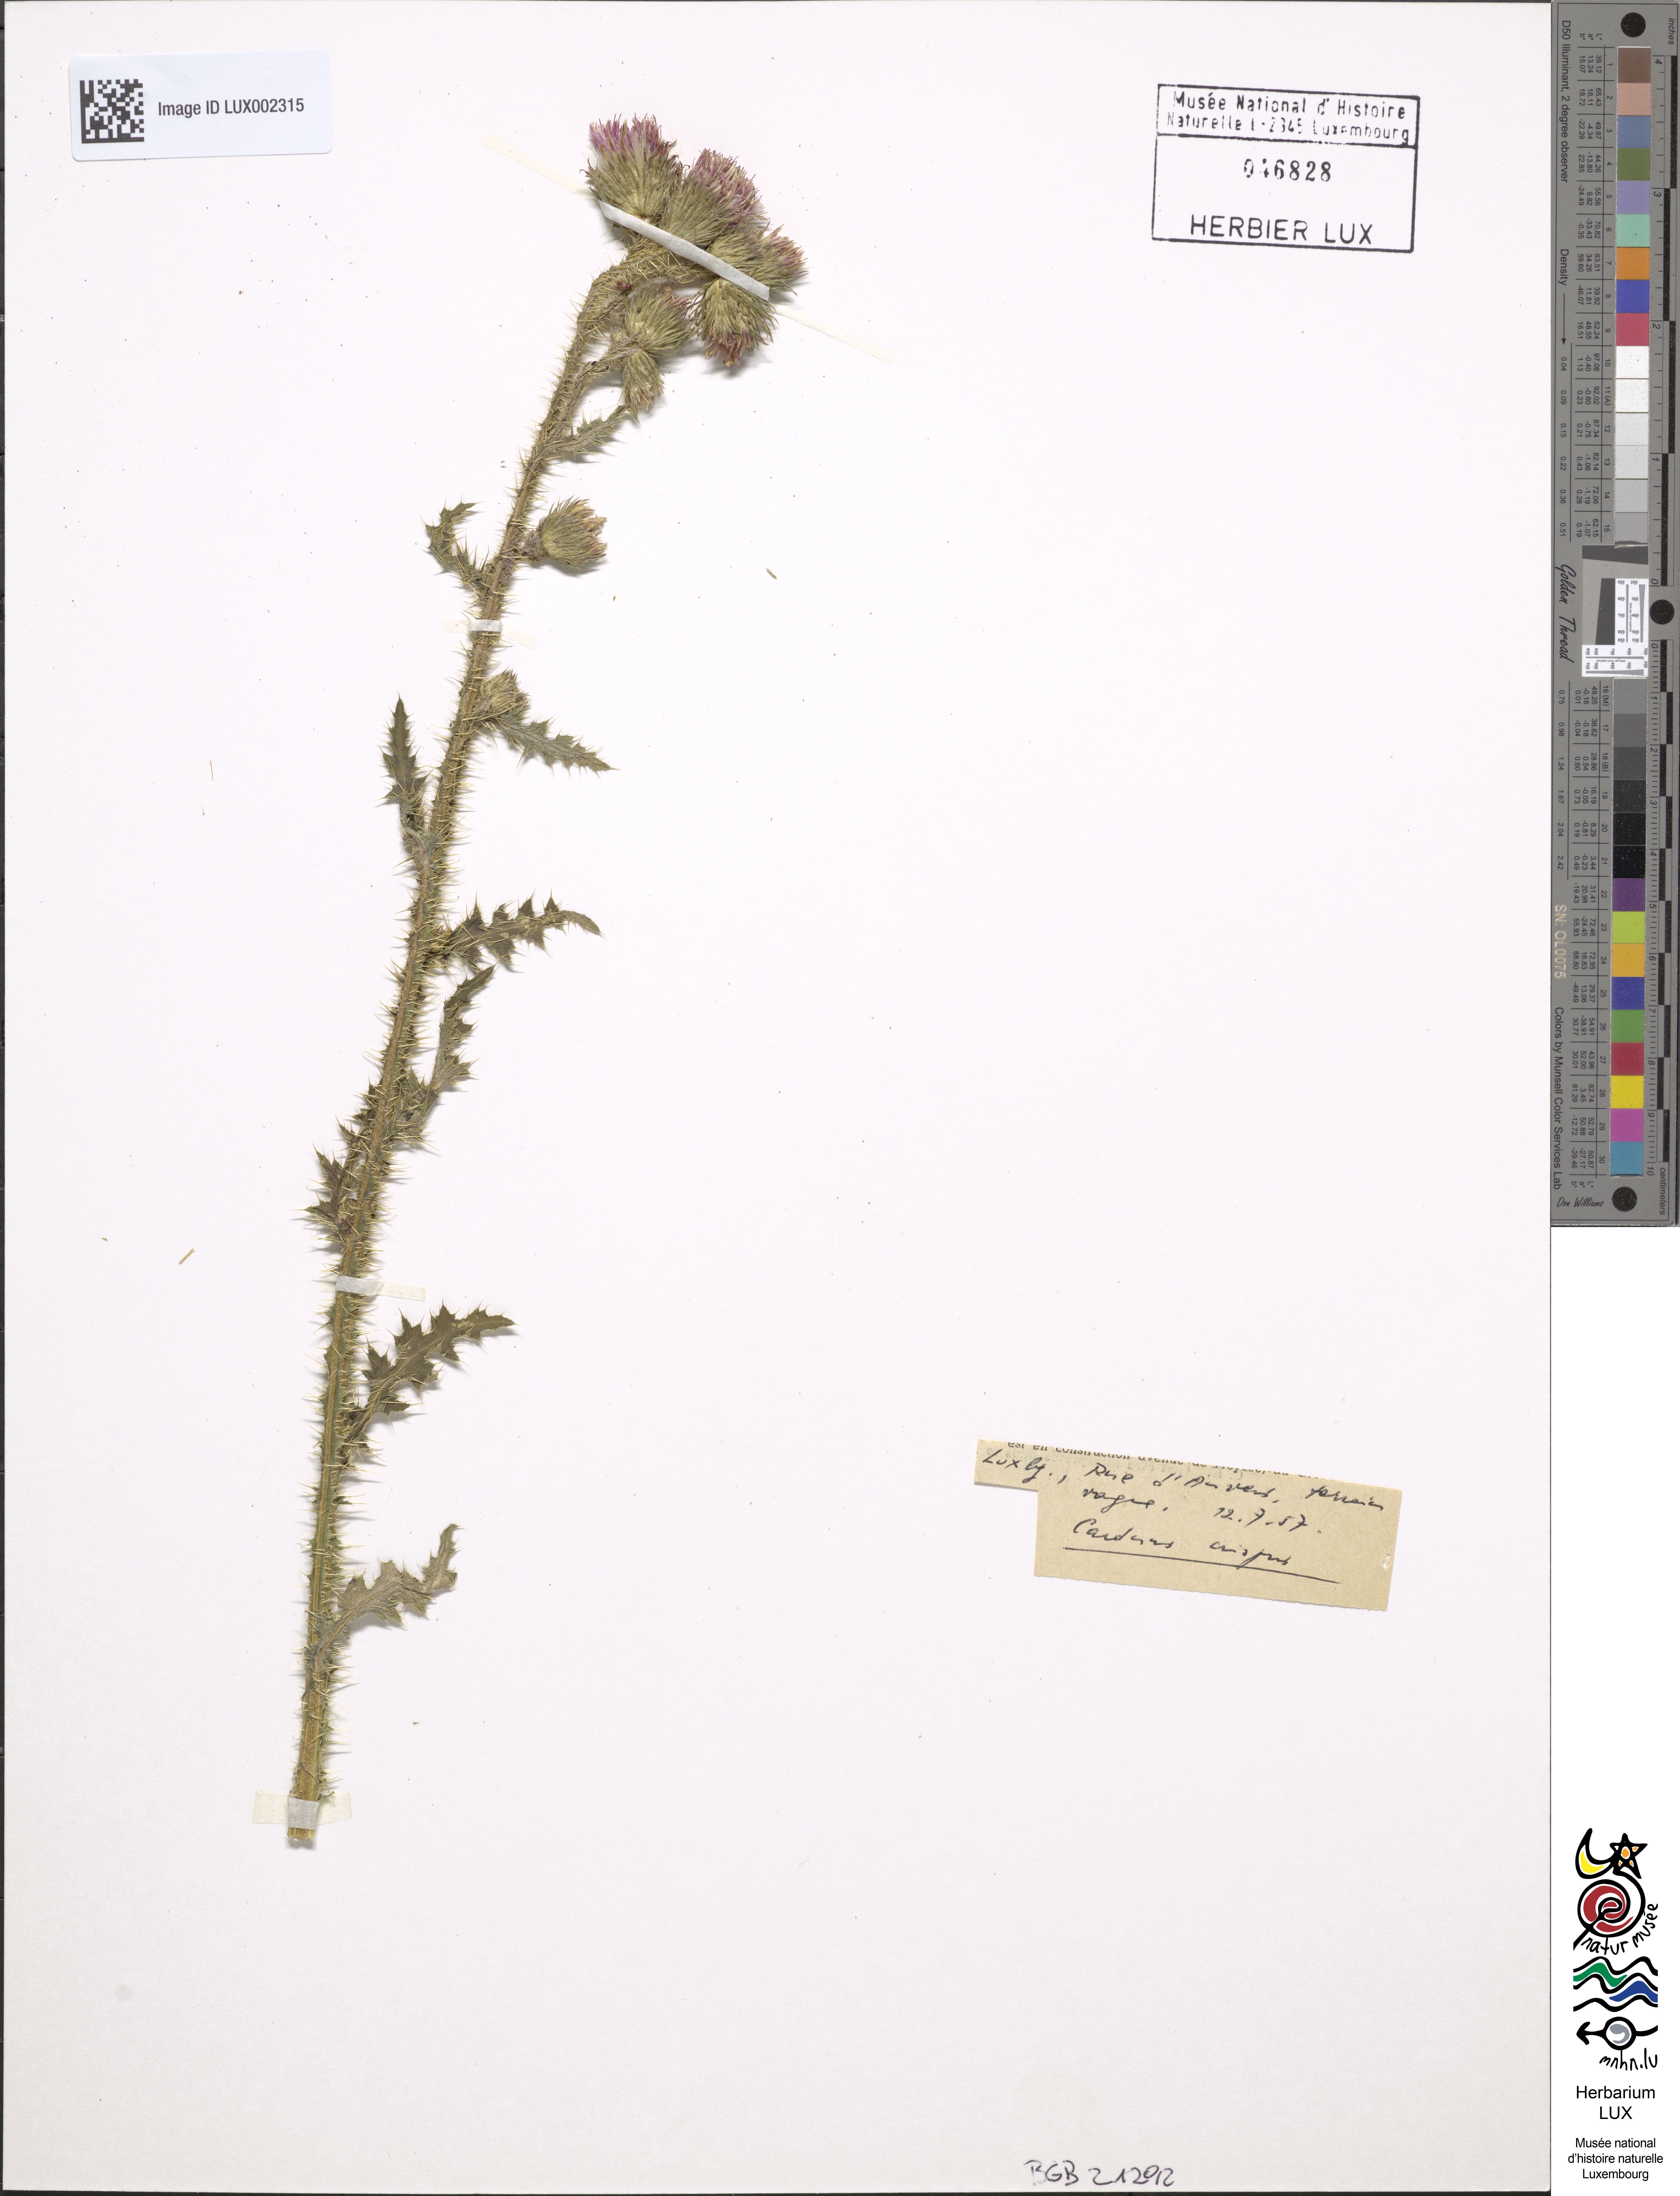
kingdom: Plantae
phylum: Tracheophyta
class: Magnoliopsida
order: Asterales
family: Asteraceae
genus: Carduus
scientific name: Carduus crispus
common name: Welted thistle
